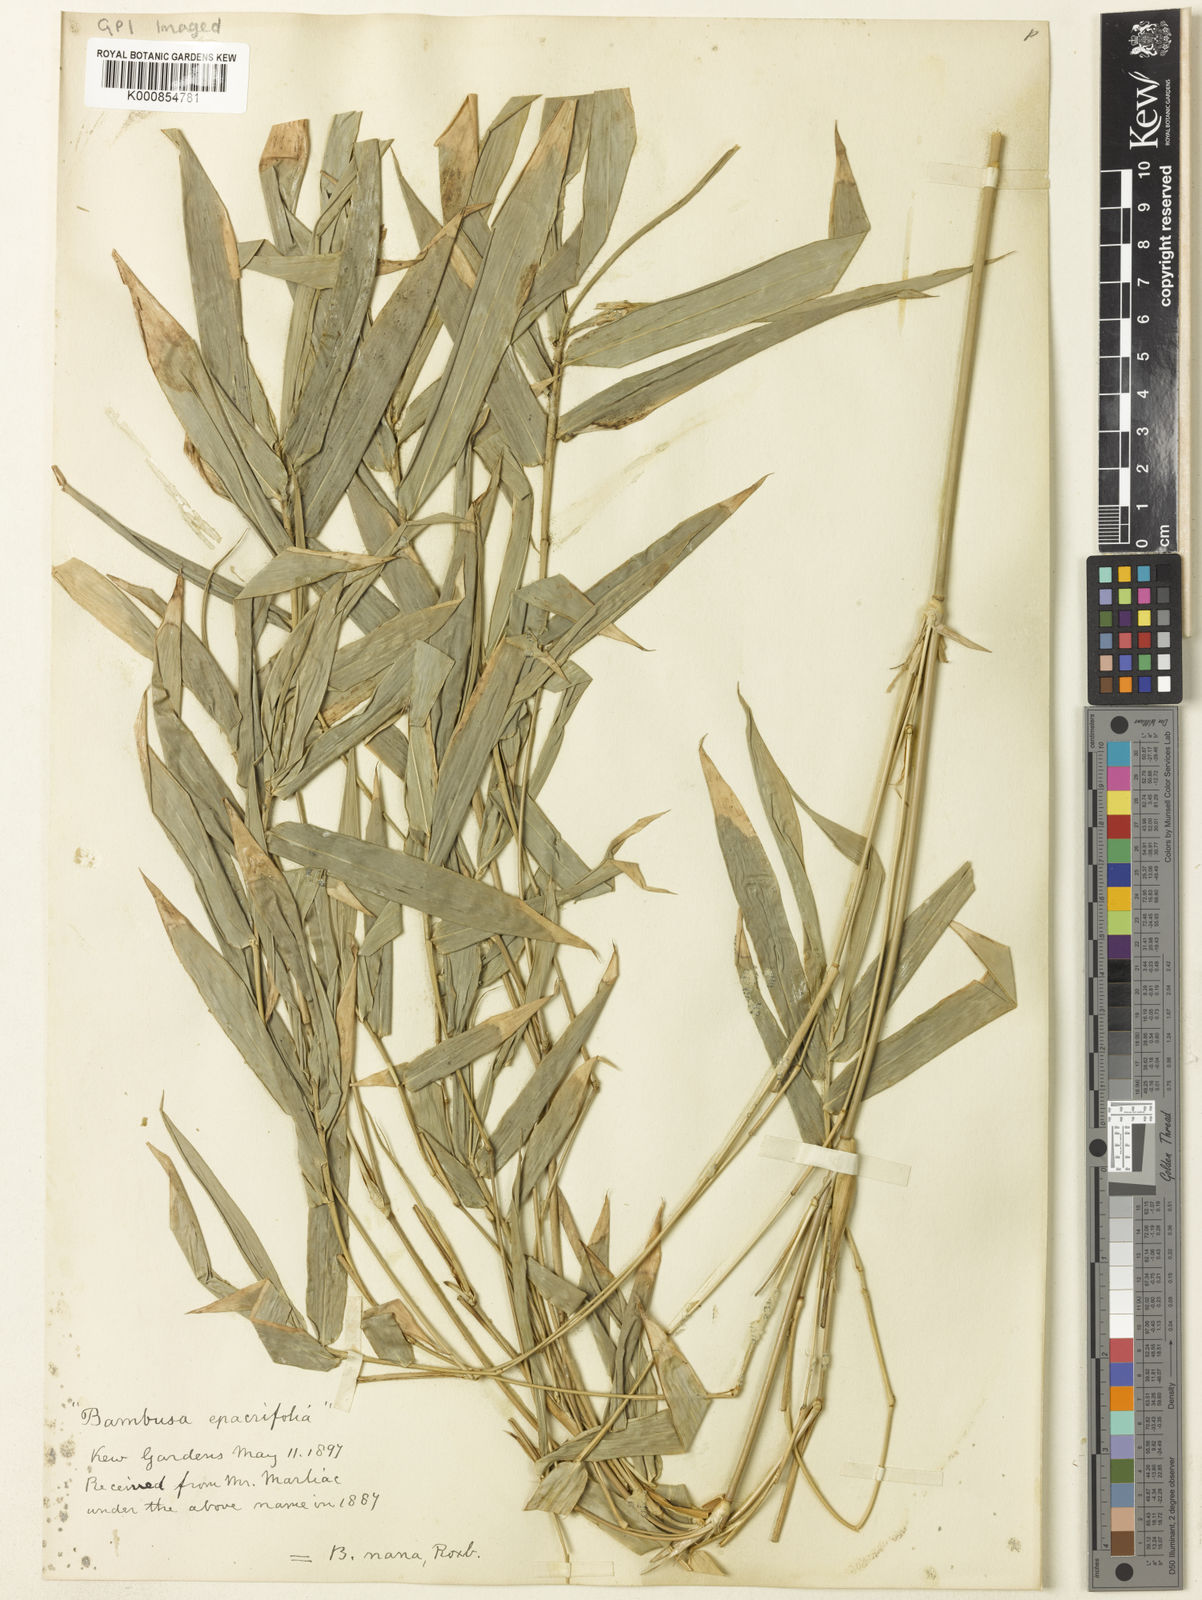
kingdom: Plantae
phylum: Tracheophyta
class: Liliopsida
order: Poales
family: Poaceae
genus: Bambusa
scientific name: Bambusa multiplex
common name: Hedge bamboo
